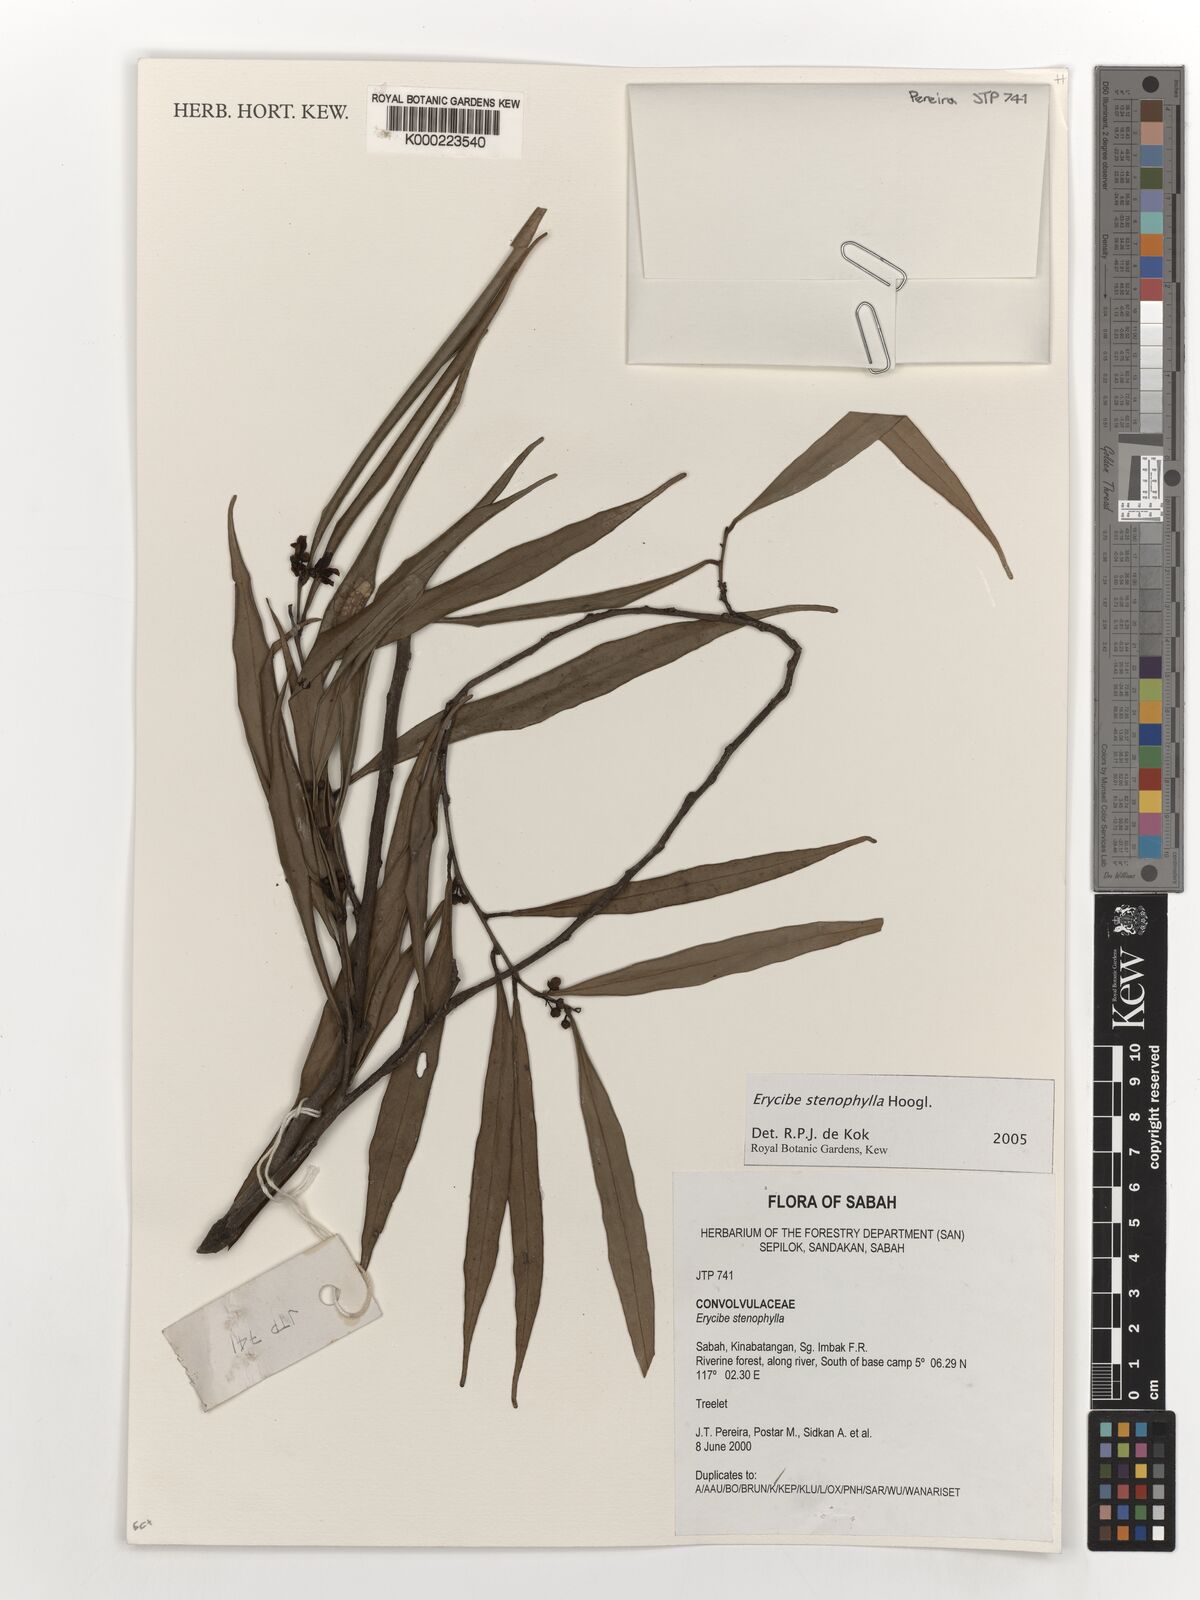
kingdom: Plantae
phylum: Tracheophyta
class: Magnoliopsida
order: Solanales
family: Convolvulaceae
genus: Erycibe
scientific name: Erycibe stenophylla
